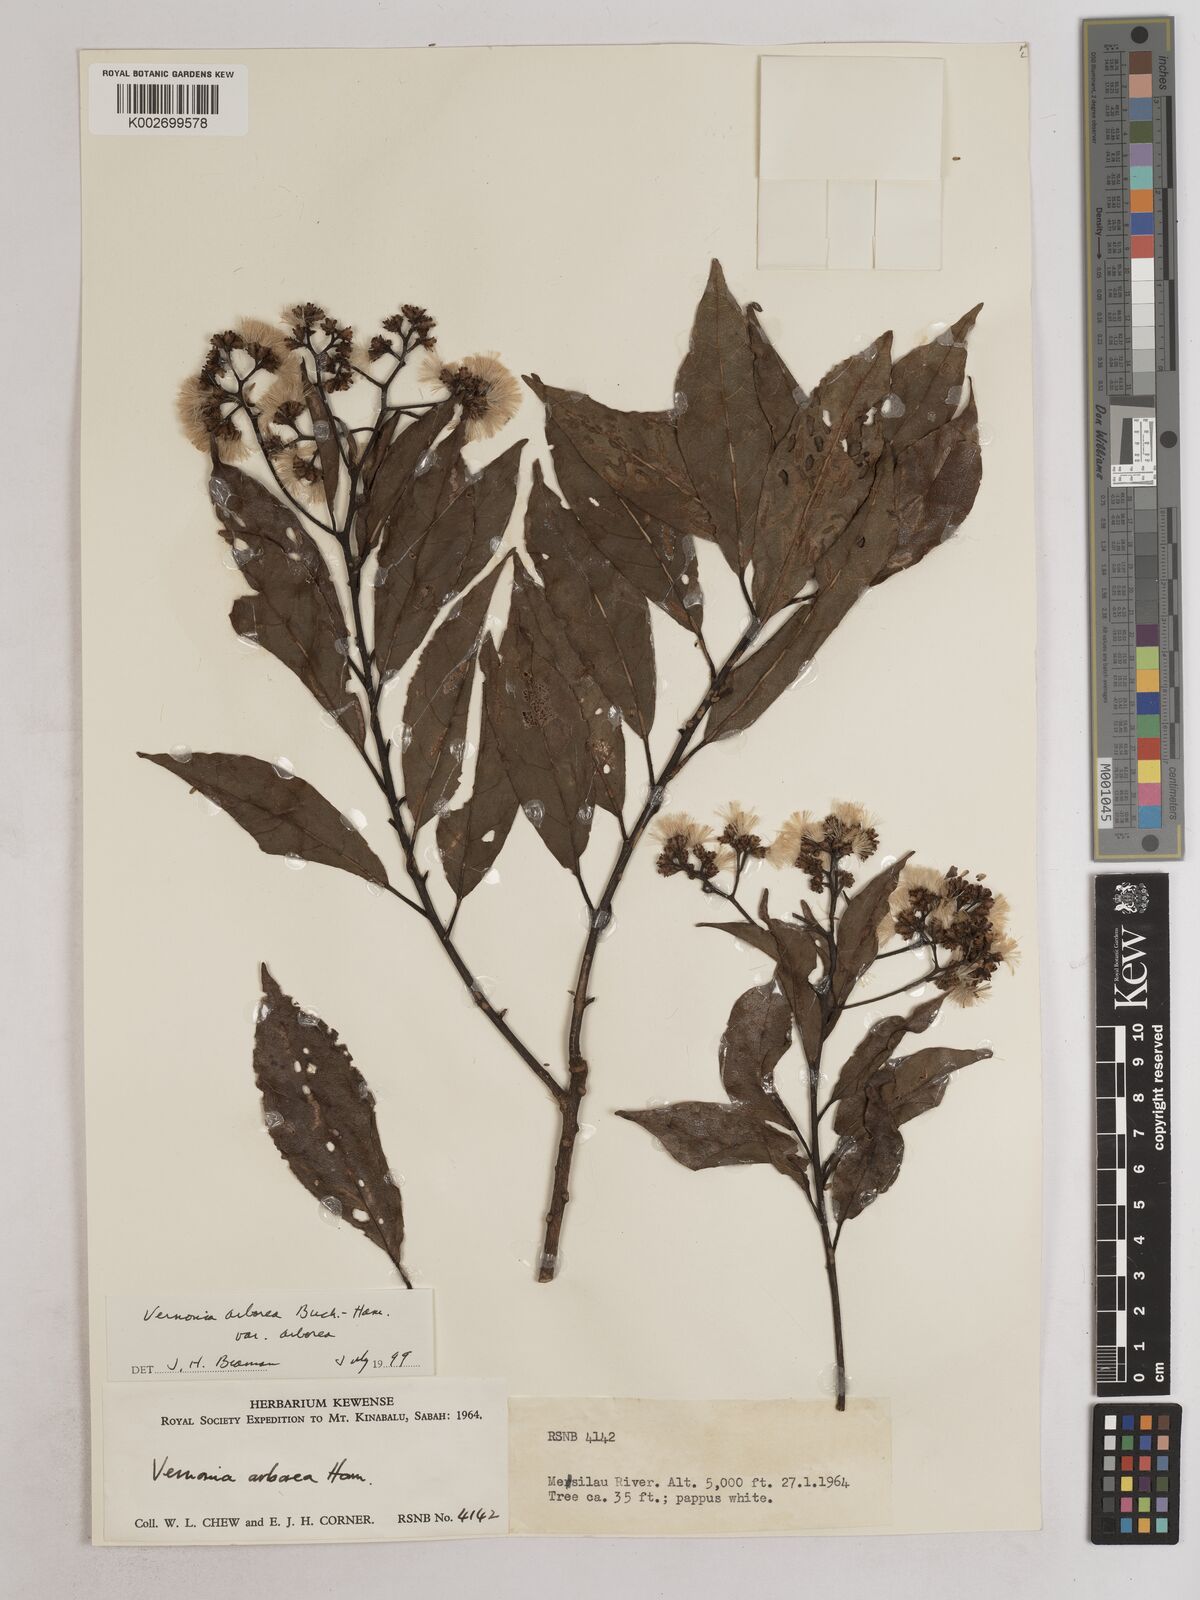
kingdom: Plantae
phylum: Tracheophyta
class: Magnoliopsida
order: Asterales
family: Asteraceae
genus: Strobocalyx
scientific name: Strobocalyx arborea
